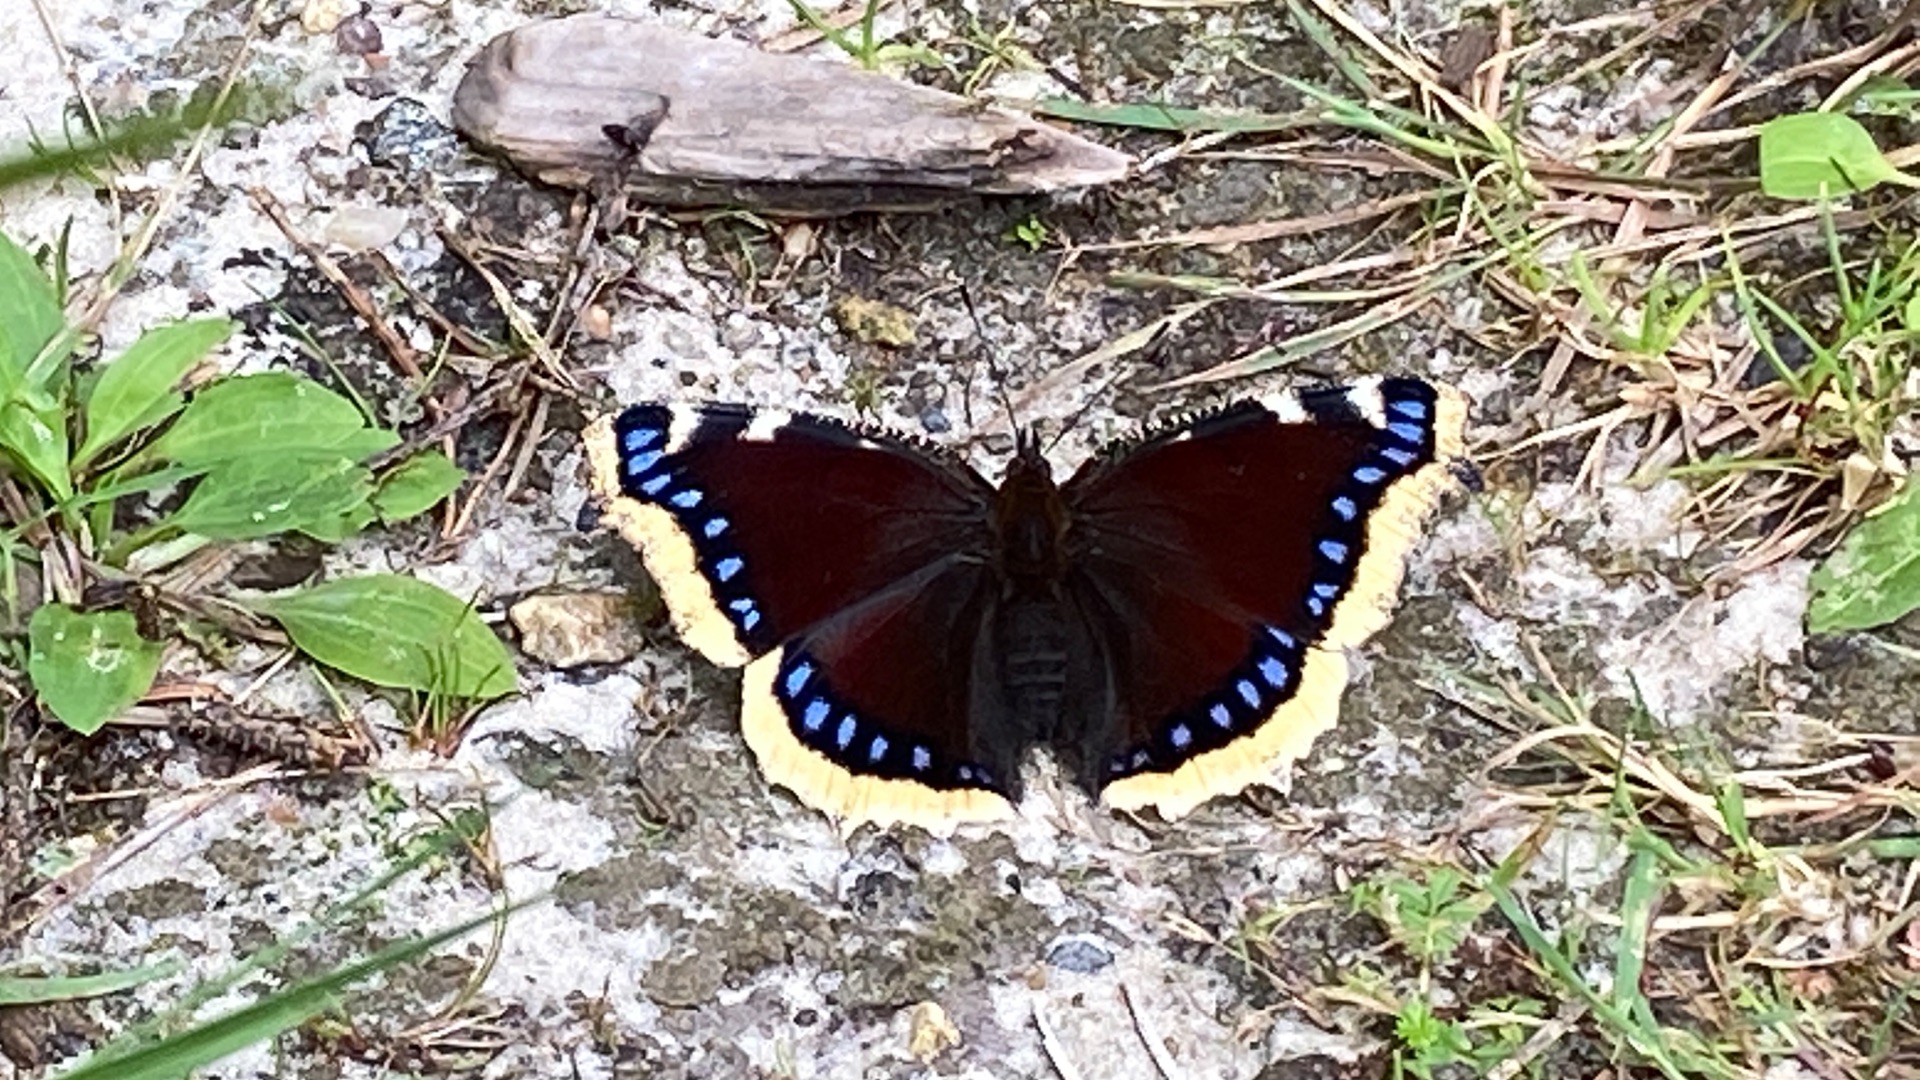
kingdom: Animalia
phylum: Arthropoda
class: Insecta
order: Lepidoptera
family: Nymphalidae
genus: Nymphalis
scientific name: Nymphalis antiopa
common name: Sørgekåbe
